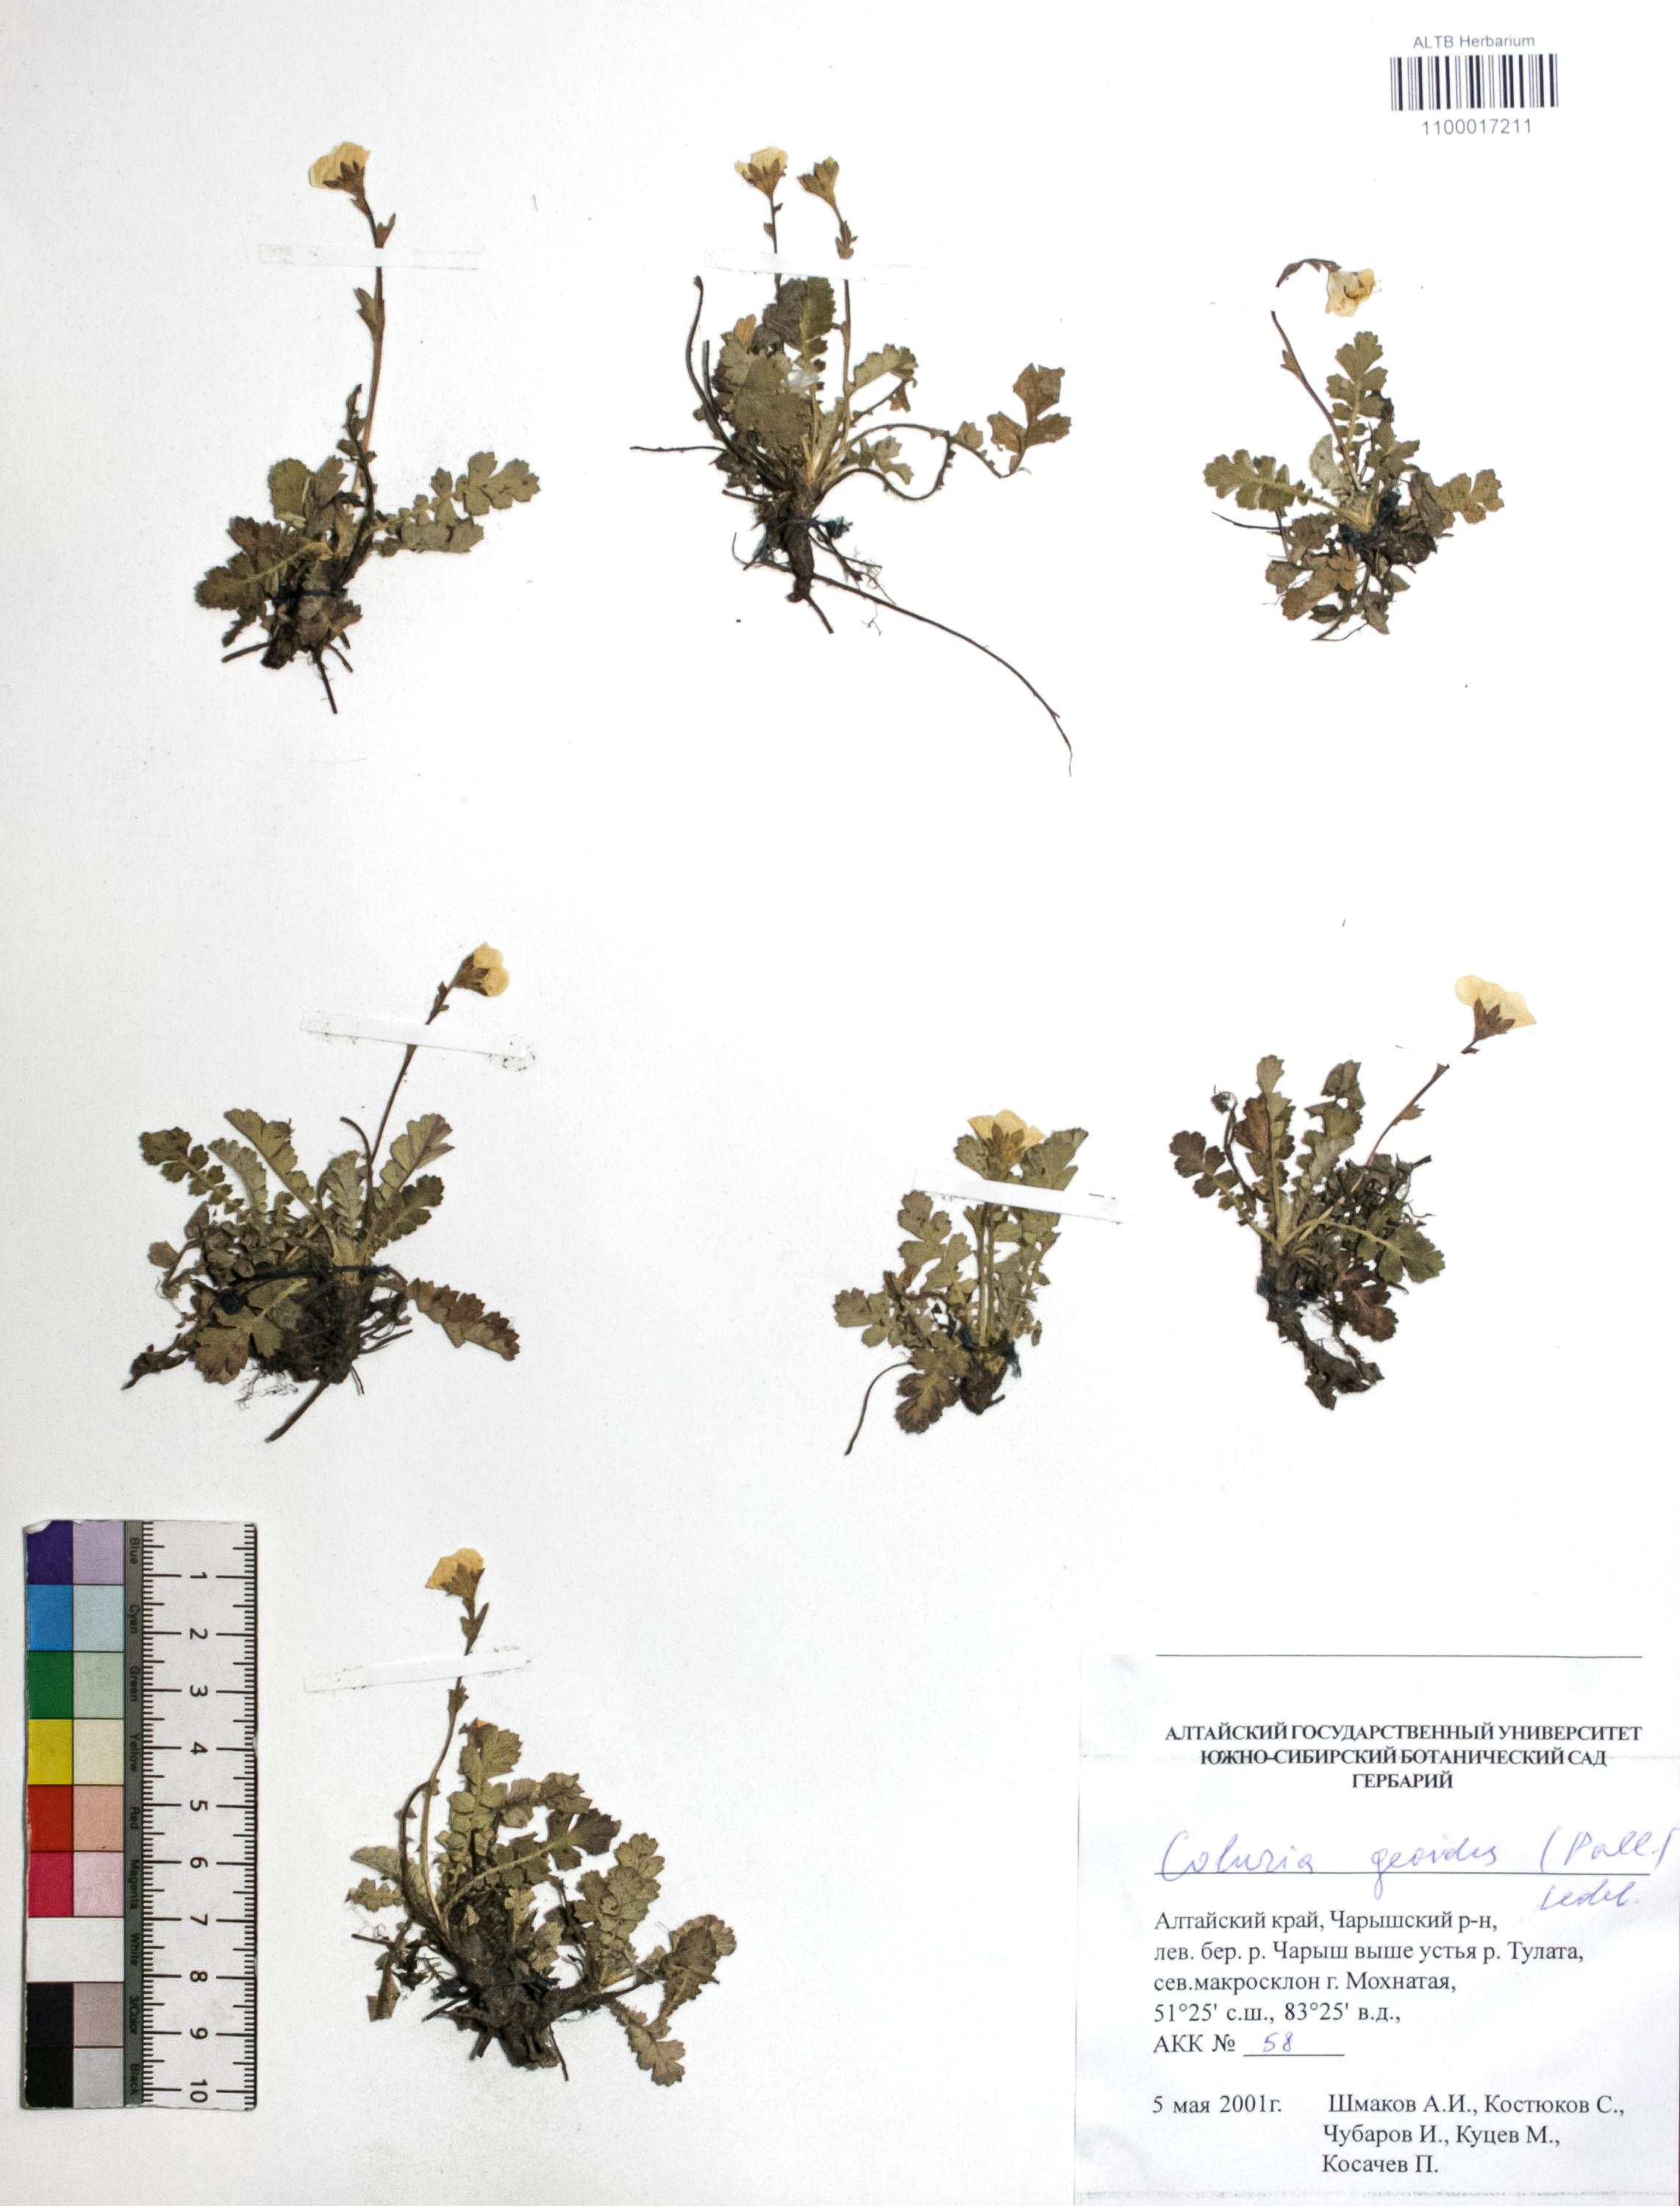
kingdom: Plantae
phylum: Tracheophyta
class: Magnoliopsida
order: Rosales
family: Rosaceae
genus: Geum
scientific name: Geum geoides
